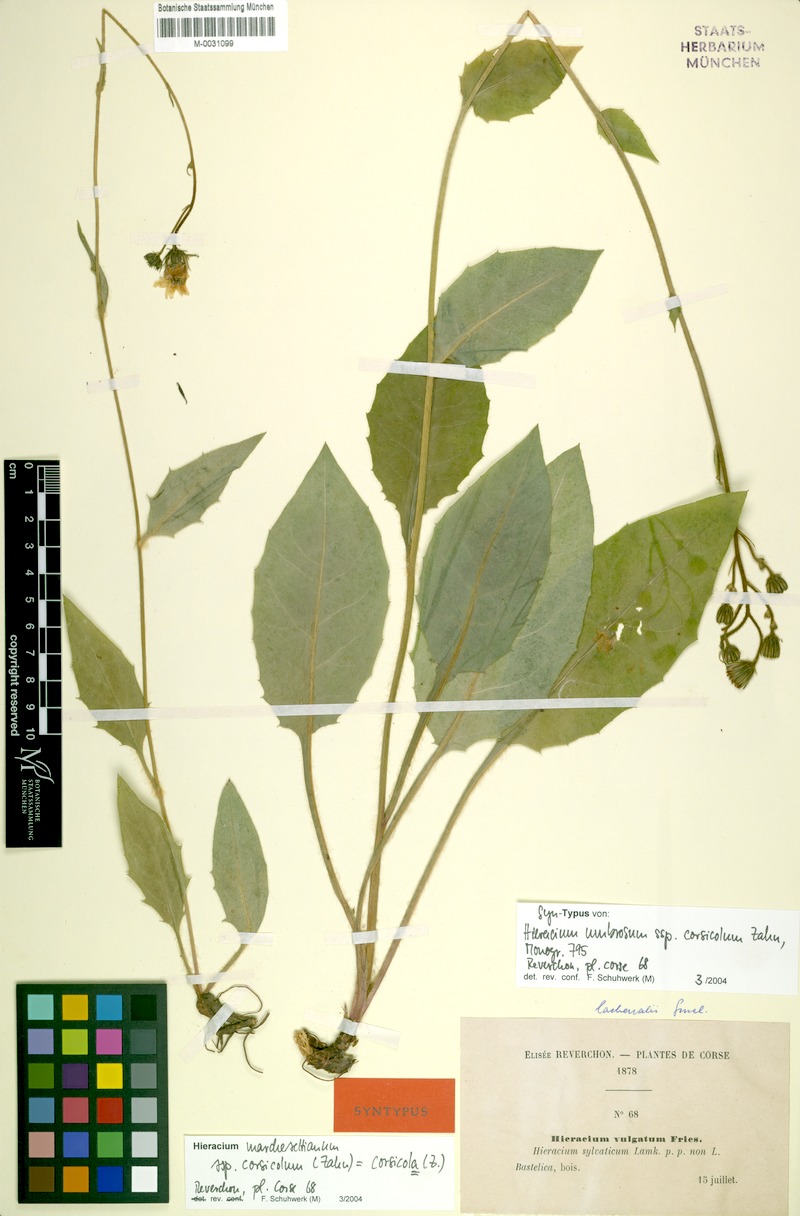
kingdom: Plantae
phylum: Tracheophyta
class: Magnoliopsida
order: Asterales
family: Asteraceae
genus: Hieracium
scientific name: Hieracium chlorophyton
